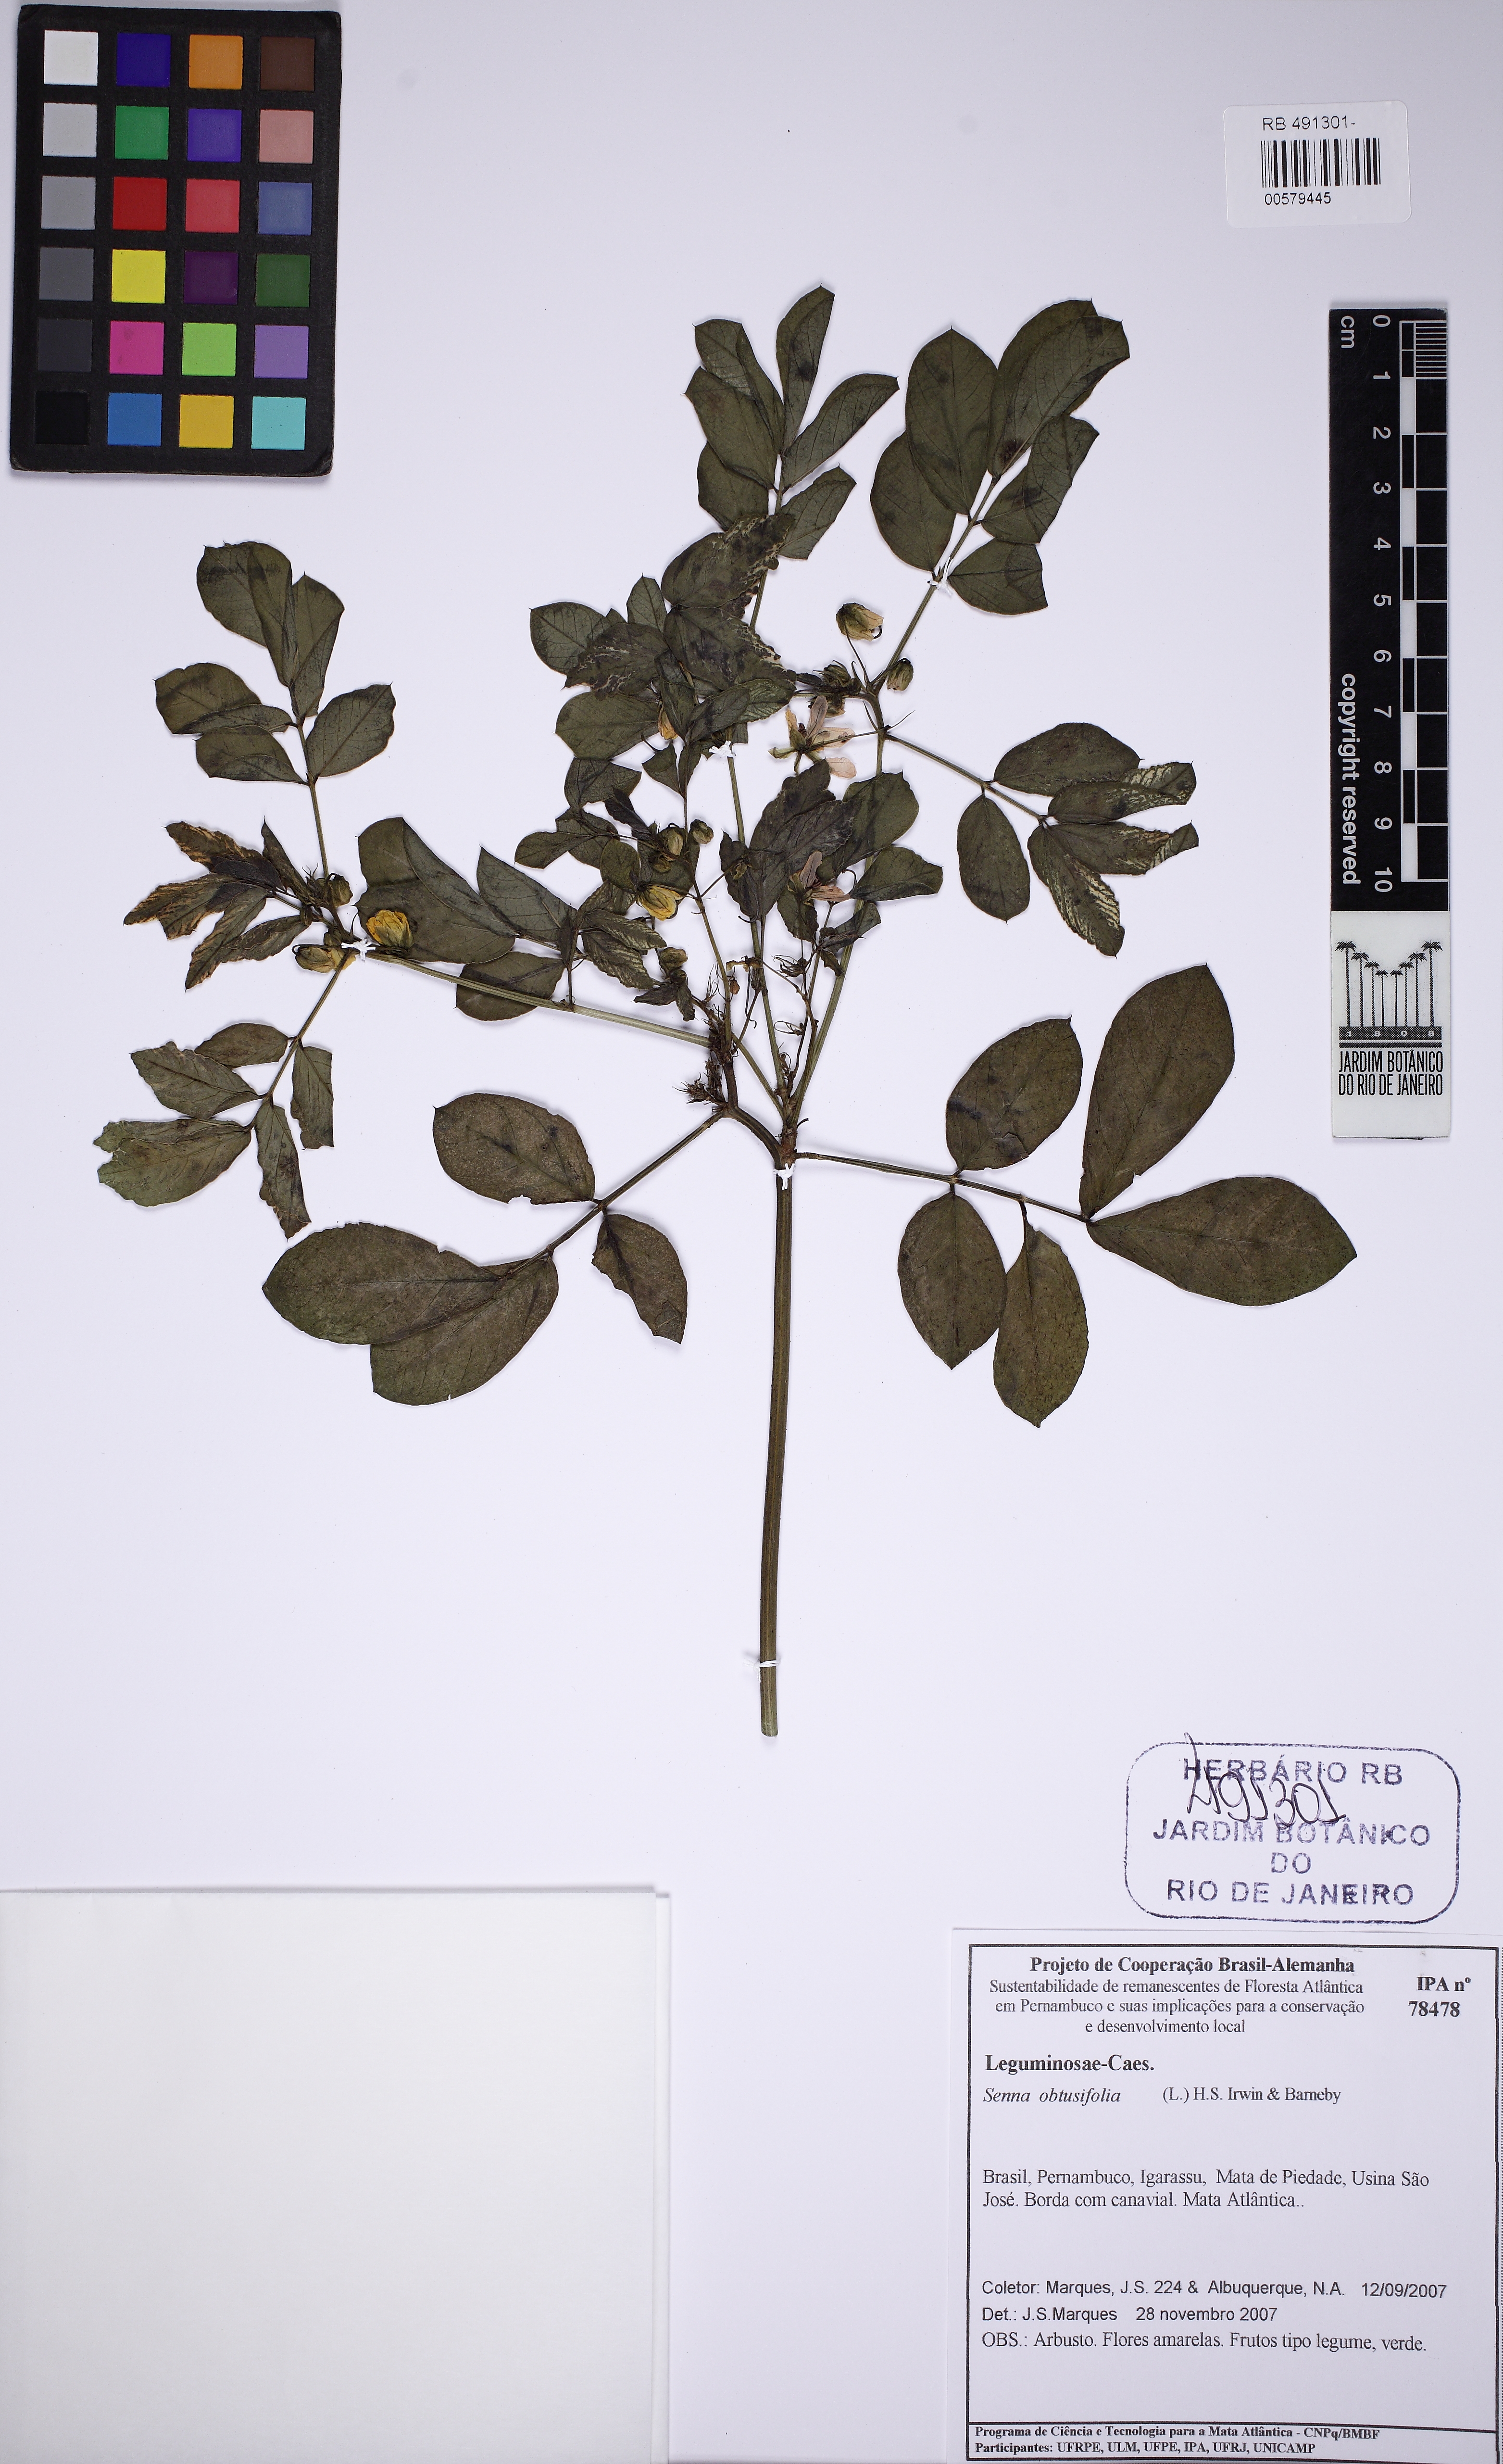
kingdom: Plantae
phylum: Tracheophyta
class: Magnoliopsida
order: Fabales
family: Fabaceae
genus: Senna
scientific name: Senna obtusifolia
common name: Java-bean
